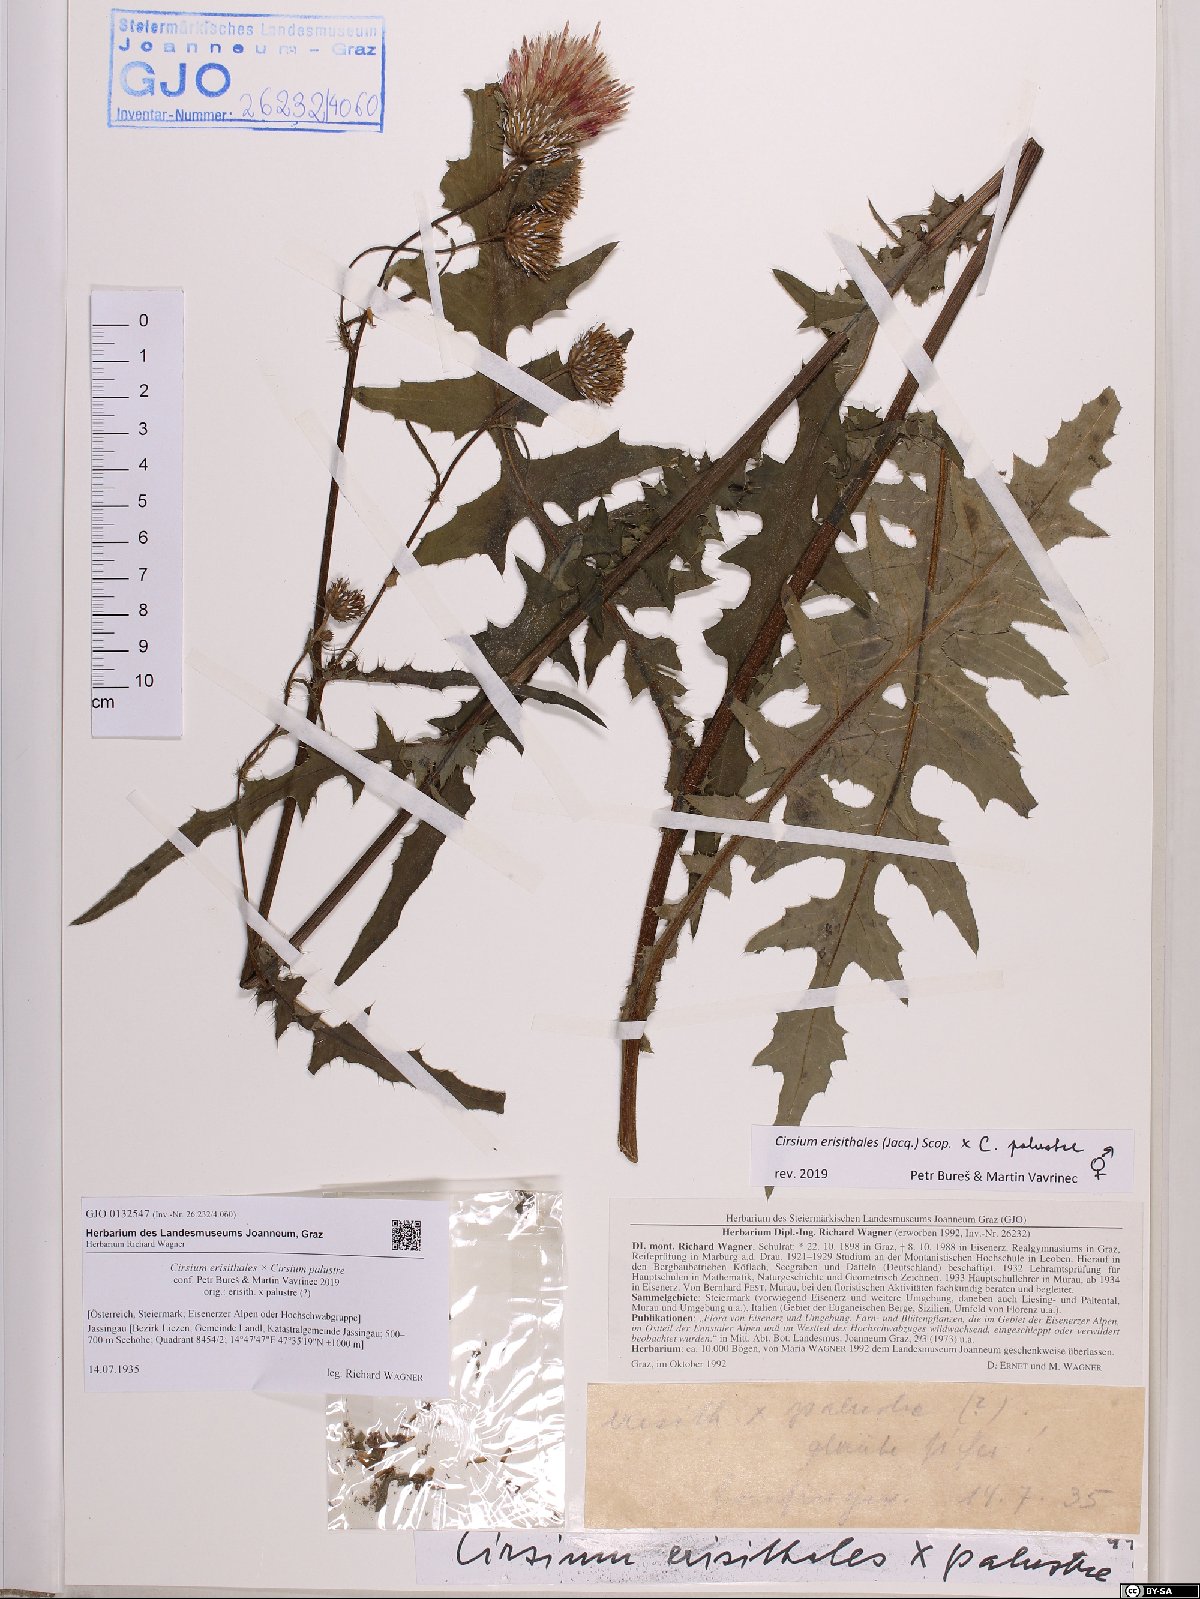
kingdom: Plantae
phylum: Tracheophyta
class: Magnoliopsida
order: Asterales
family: Asteraceae
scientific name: Asteraceae
